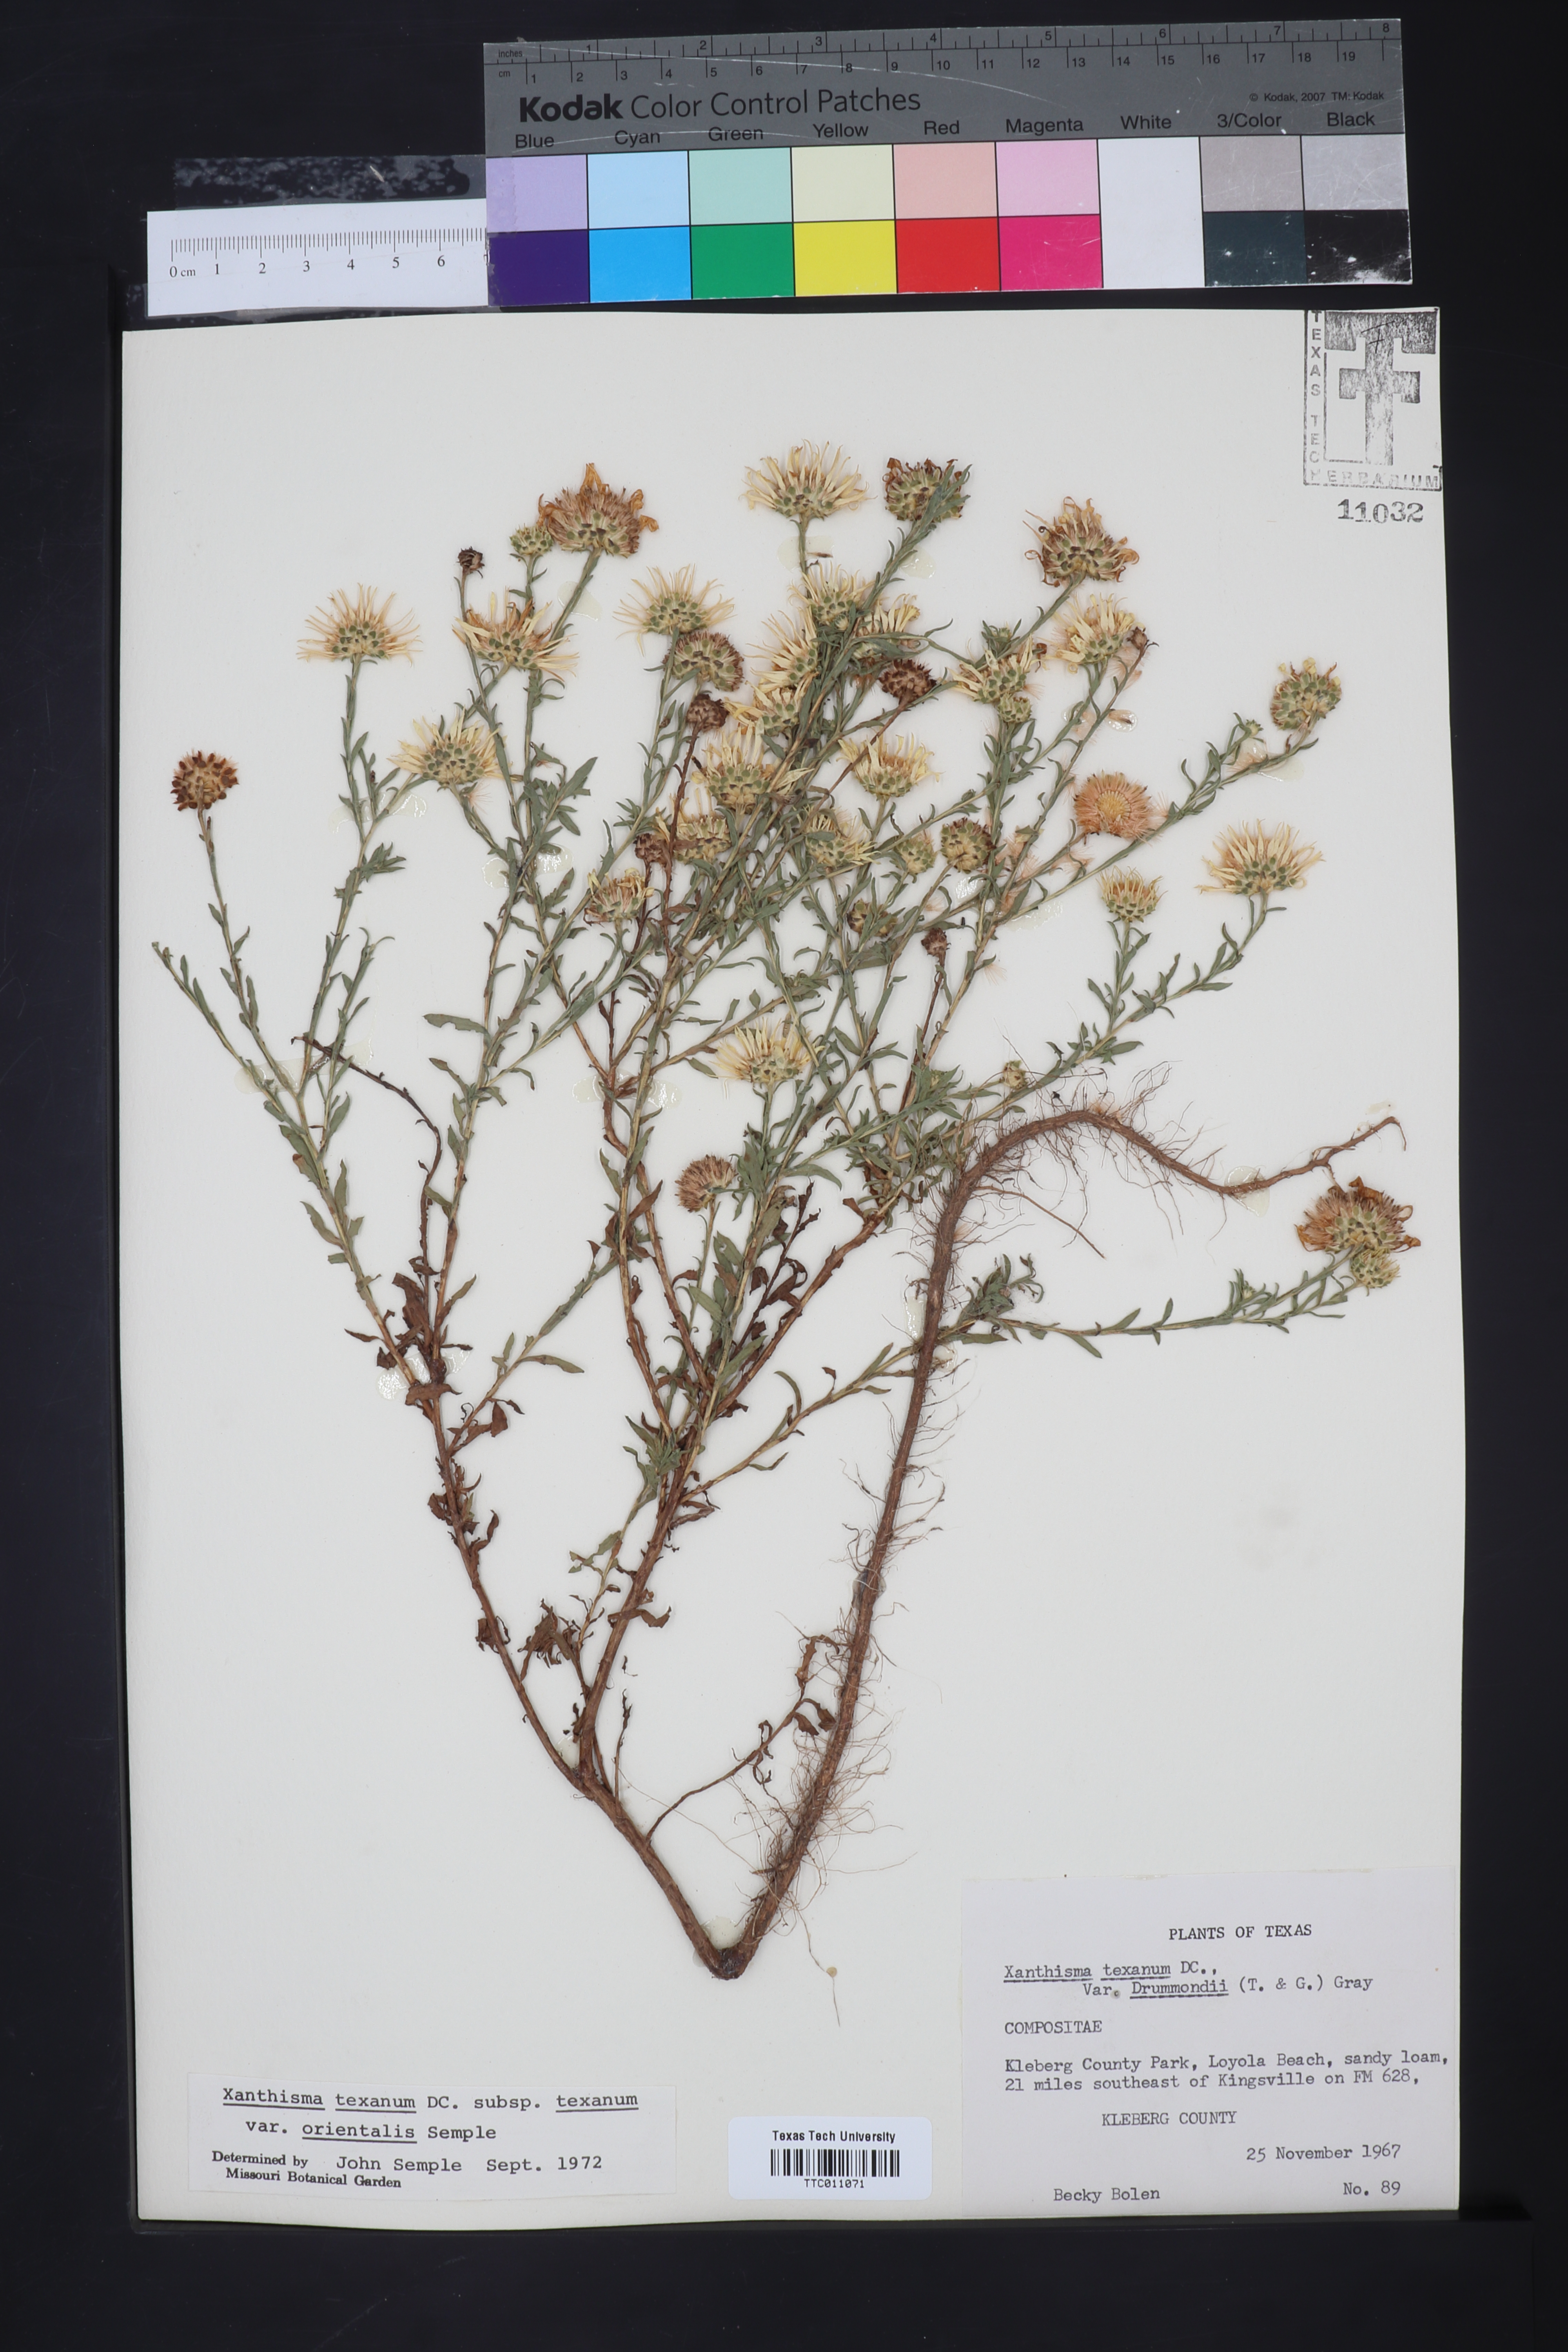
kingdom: Plantae
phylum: Tracheophyta
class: Magnoliopsida
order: Asterales
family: Asteraceae
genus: Xanthisma
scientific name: Xanthisma texanum
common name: Texas sleepy daisy
